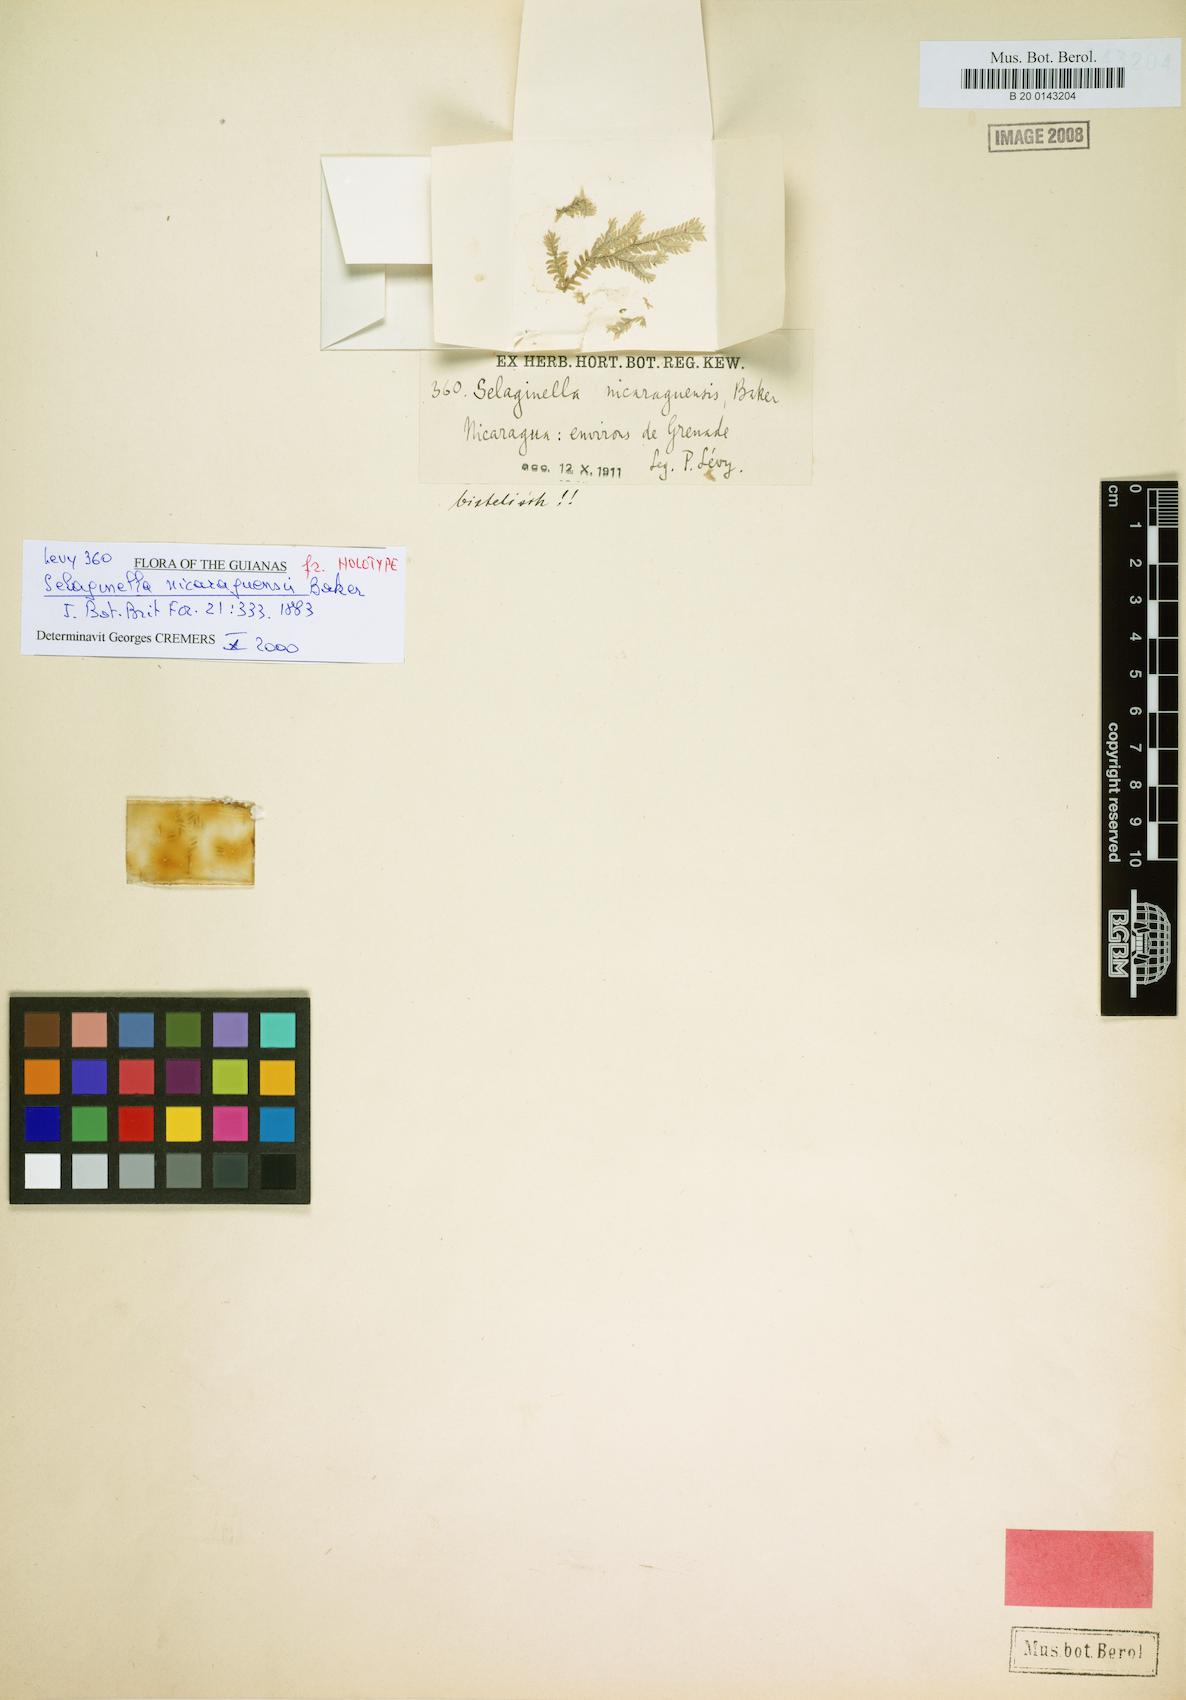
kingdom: Plantae
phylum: Tracheophyta
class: Lycopodiopsida
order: Selaginellales
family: Selaginellaceae
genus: Selaginella
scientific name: Selaginella sertata
